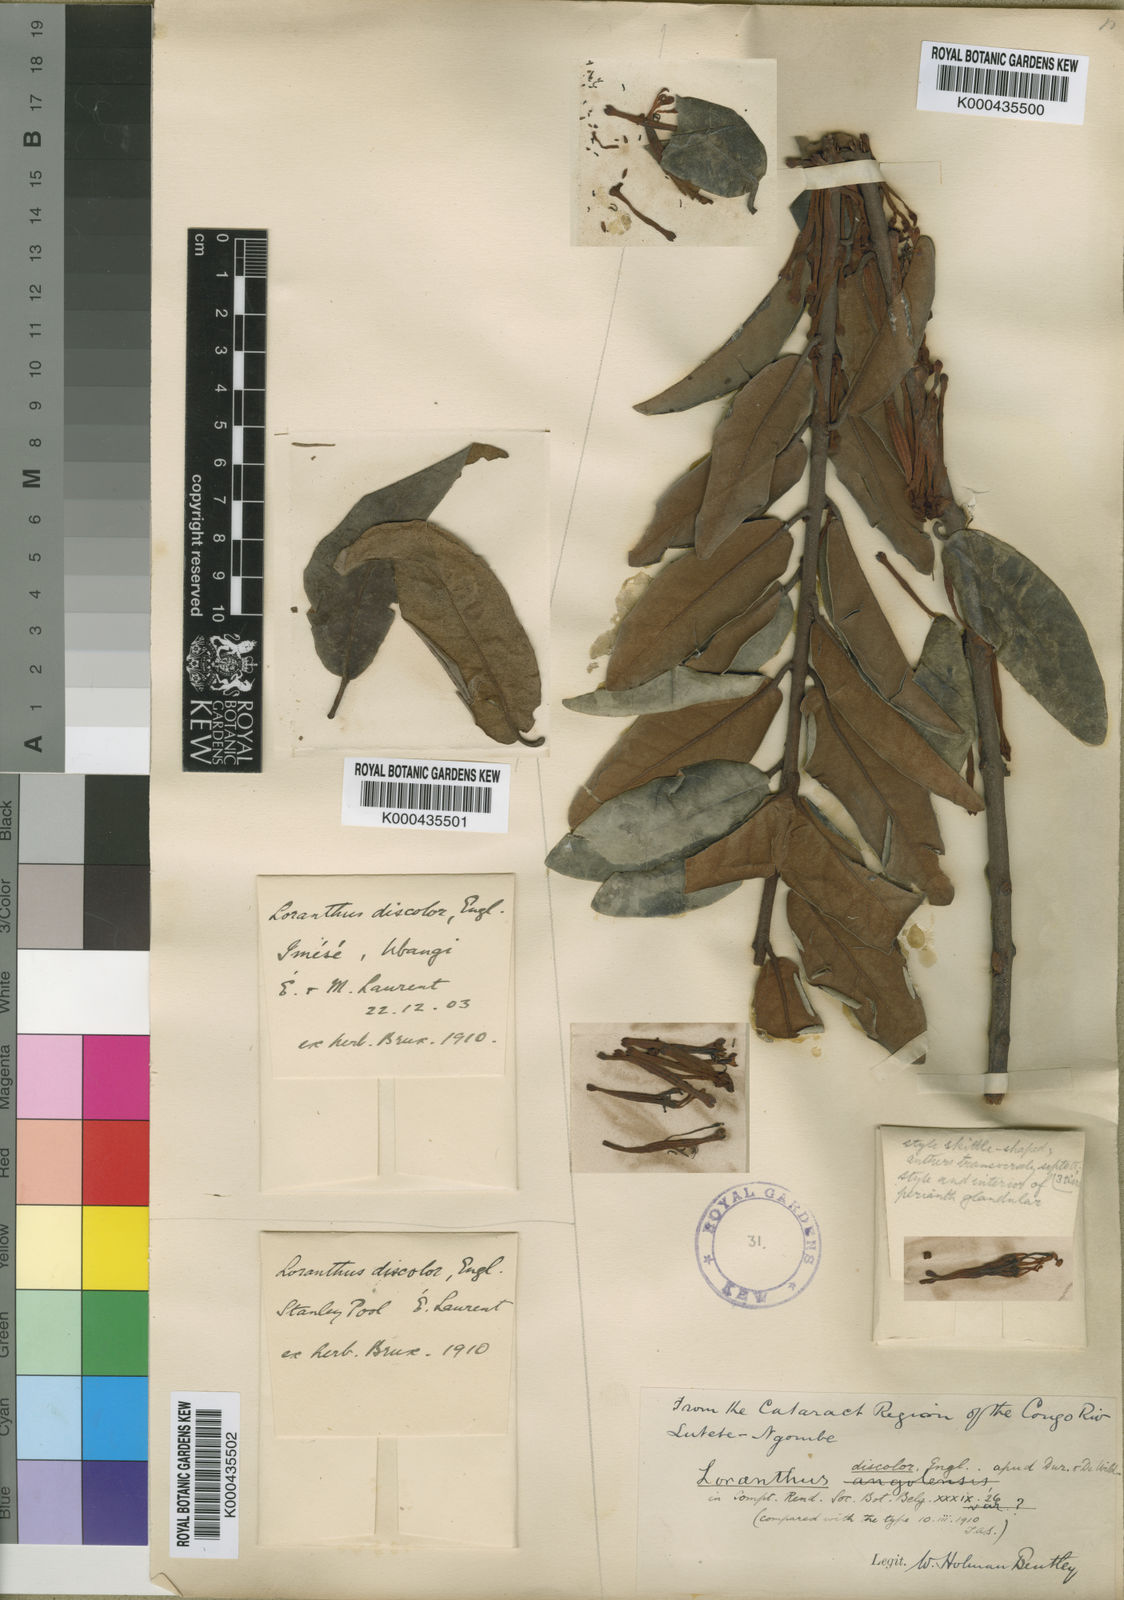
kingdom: Plantae
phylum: Tracheophyta
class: Magnoliopsida
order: Santalales
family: Loranthaceae
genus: Phragmanthera
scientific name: Phragmanthera polycrypta
